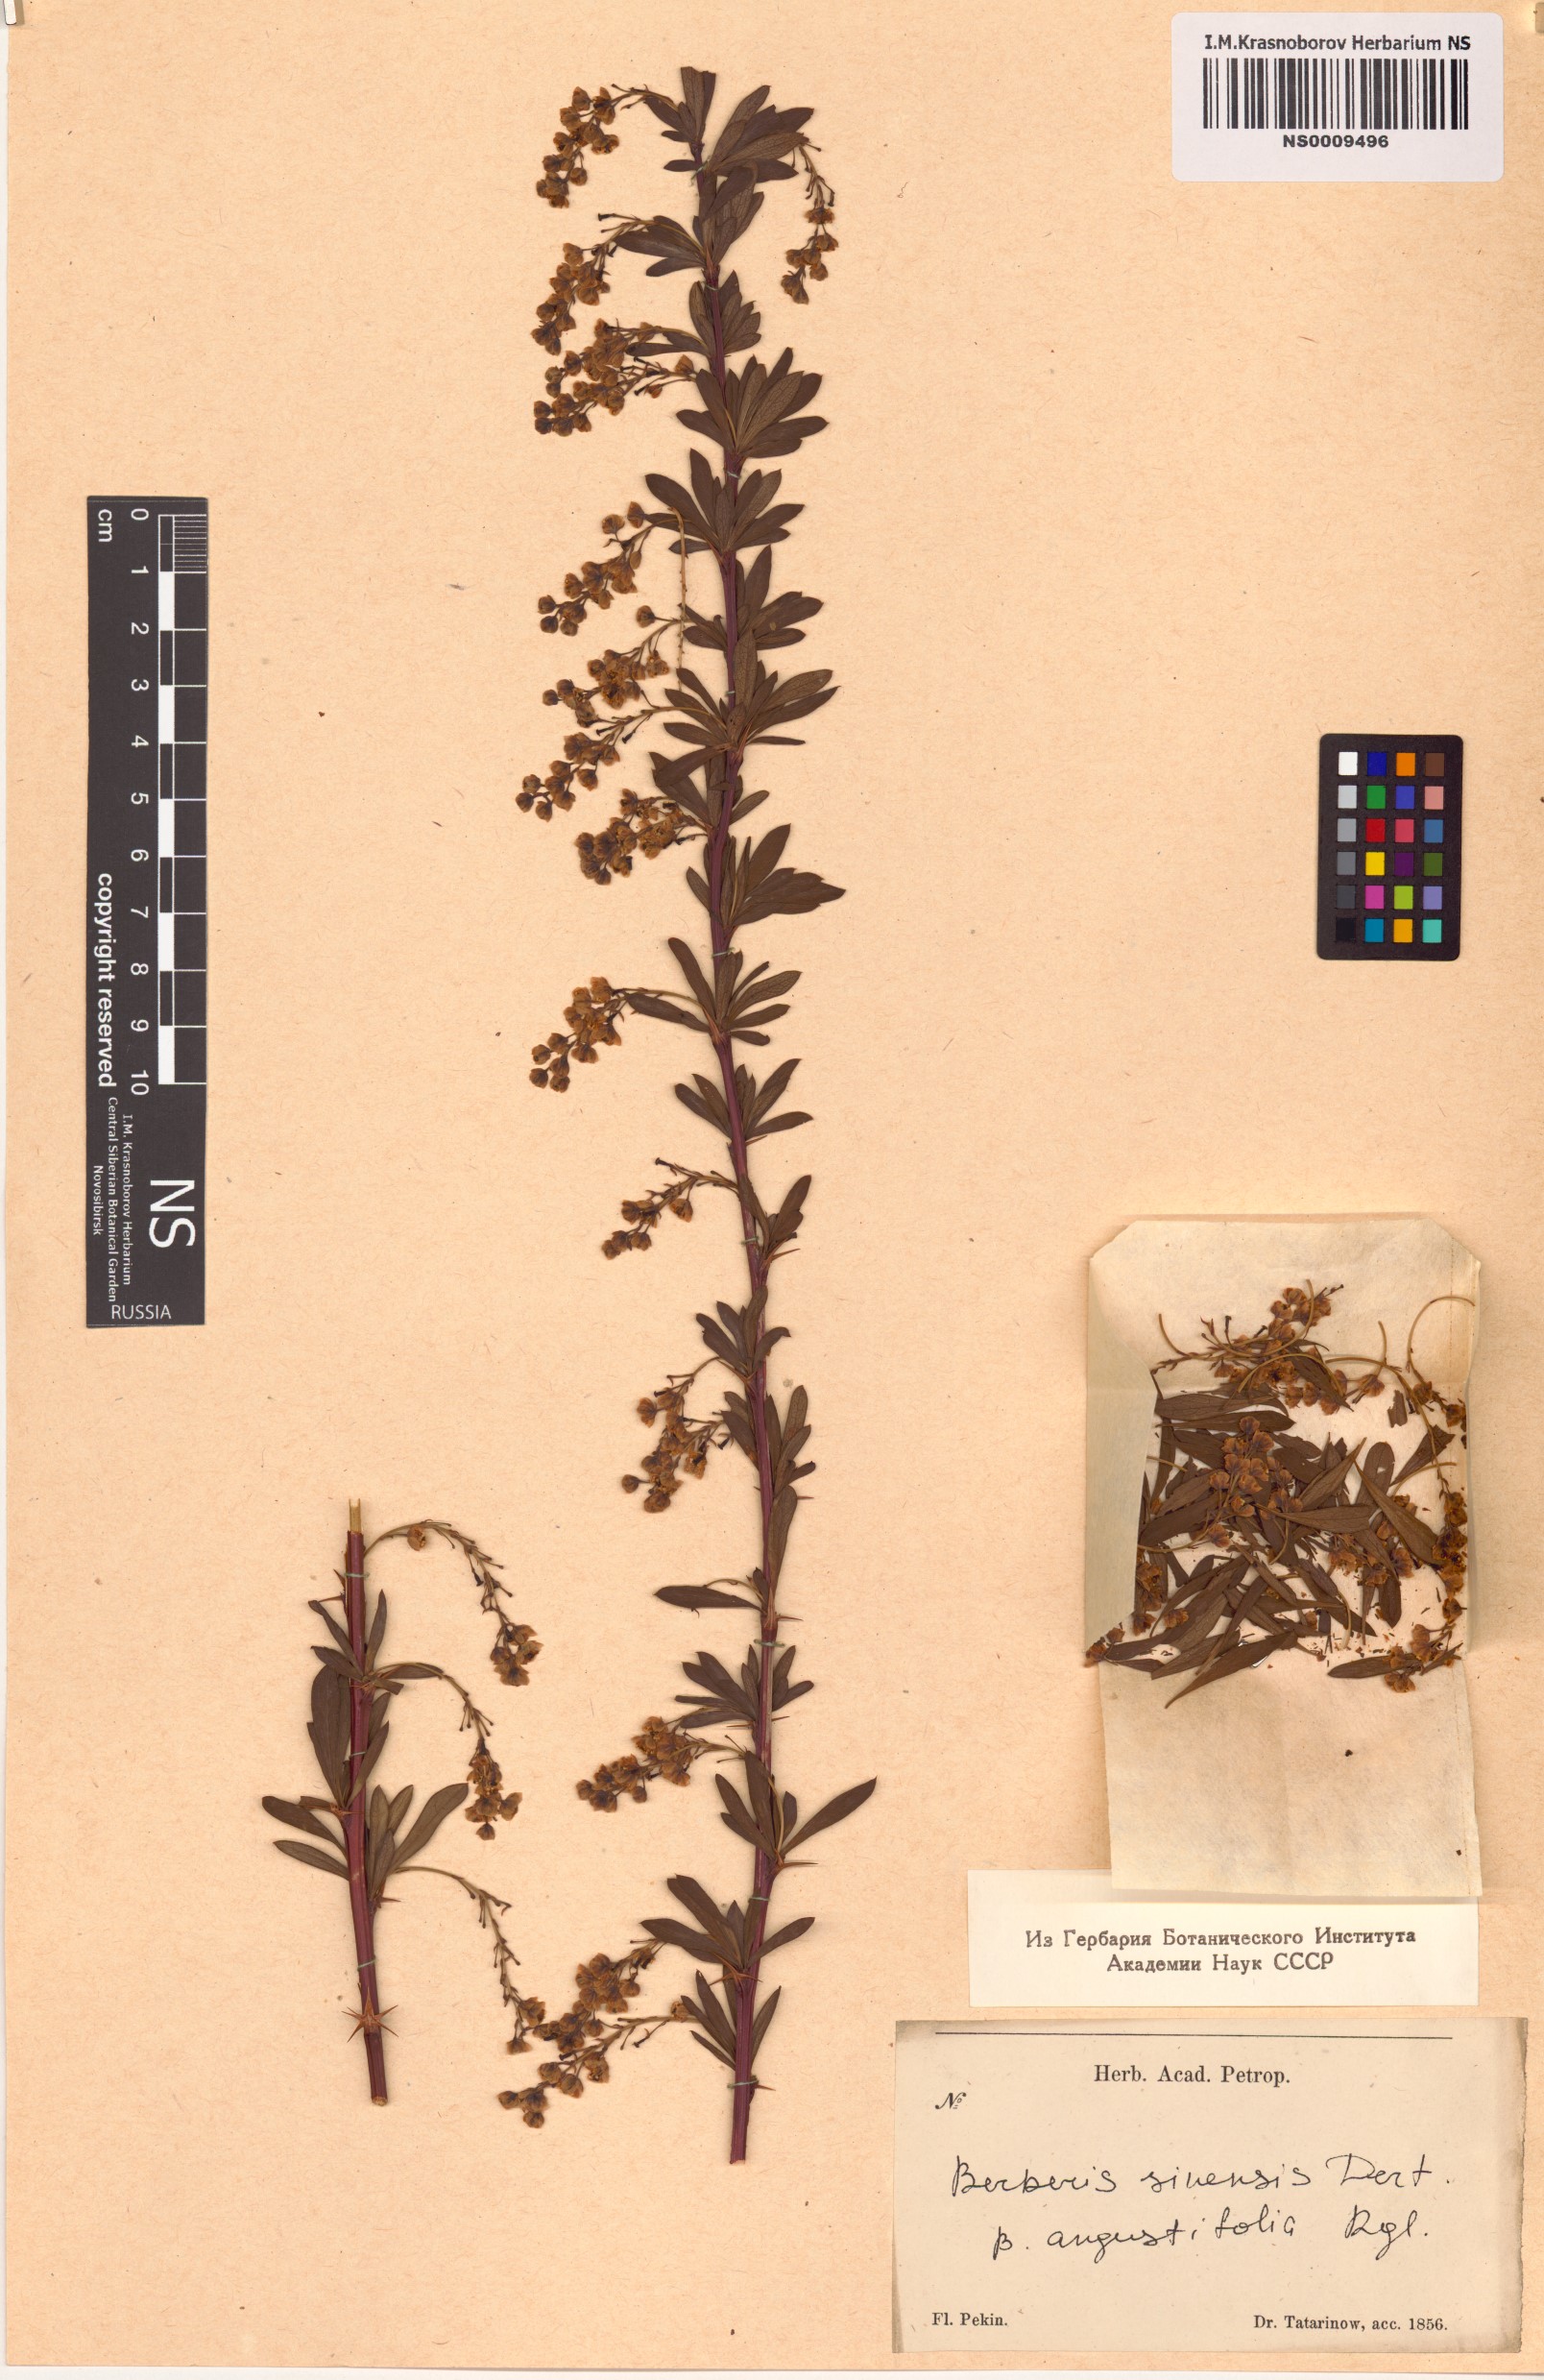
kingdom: Plantae
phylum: Tracheophyta
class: Magnoliopsida
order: Ranunculales
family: Berberidaceae
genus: Berberis
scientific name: Berberis chinensis
